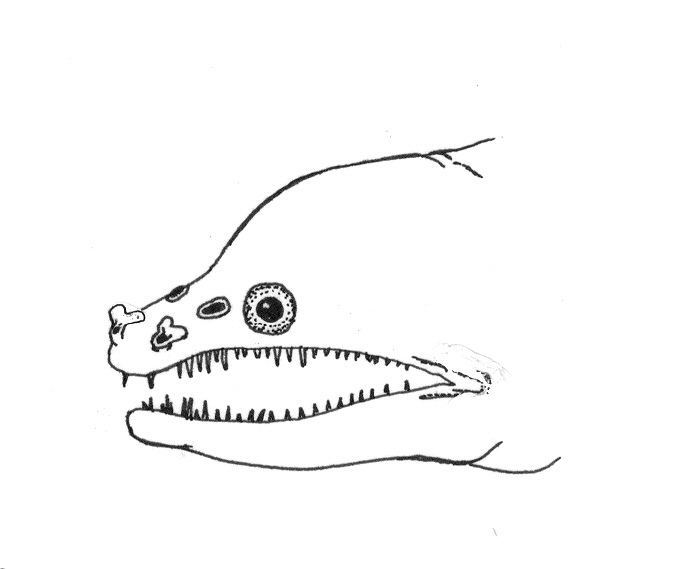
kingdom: Animalia
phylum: Chordata
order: Anguilliformes
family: Muraenidae
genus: Enchelynassa
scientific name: Enchelynassa
